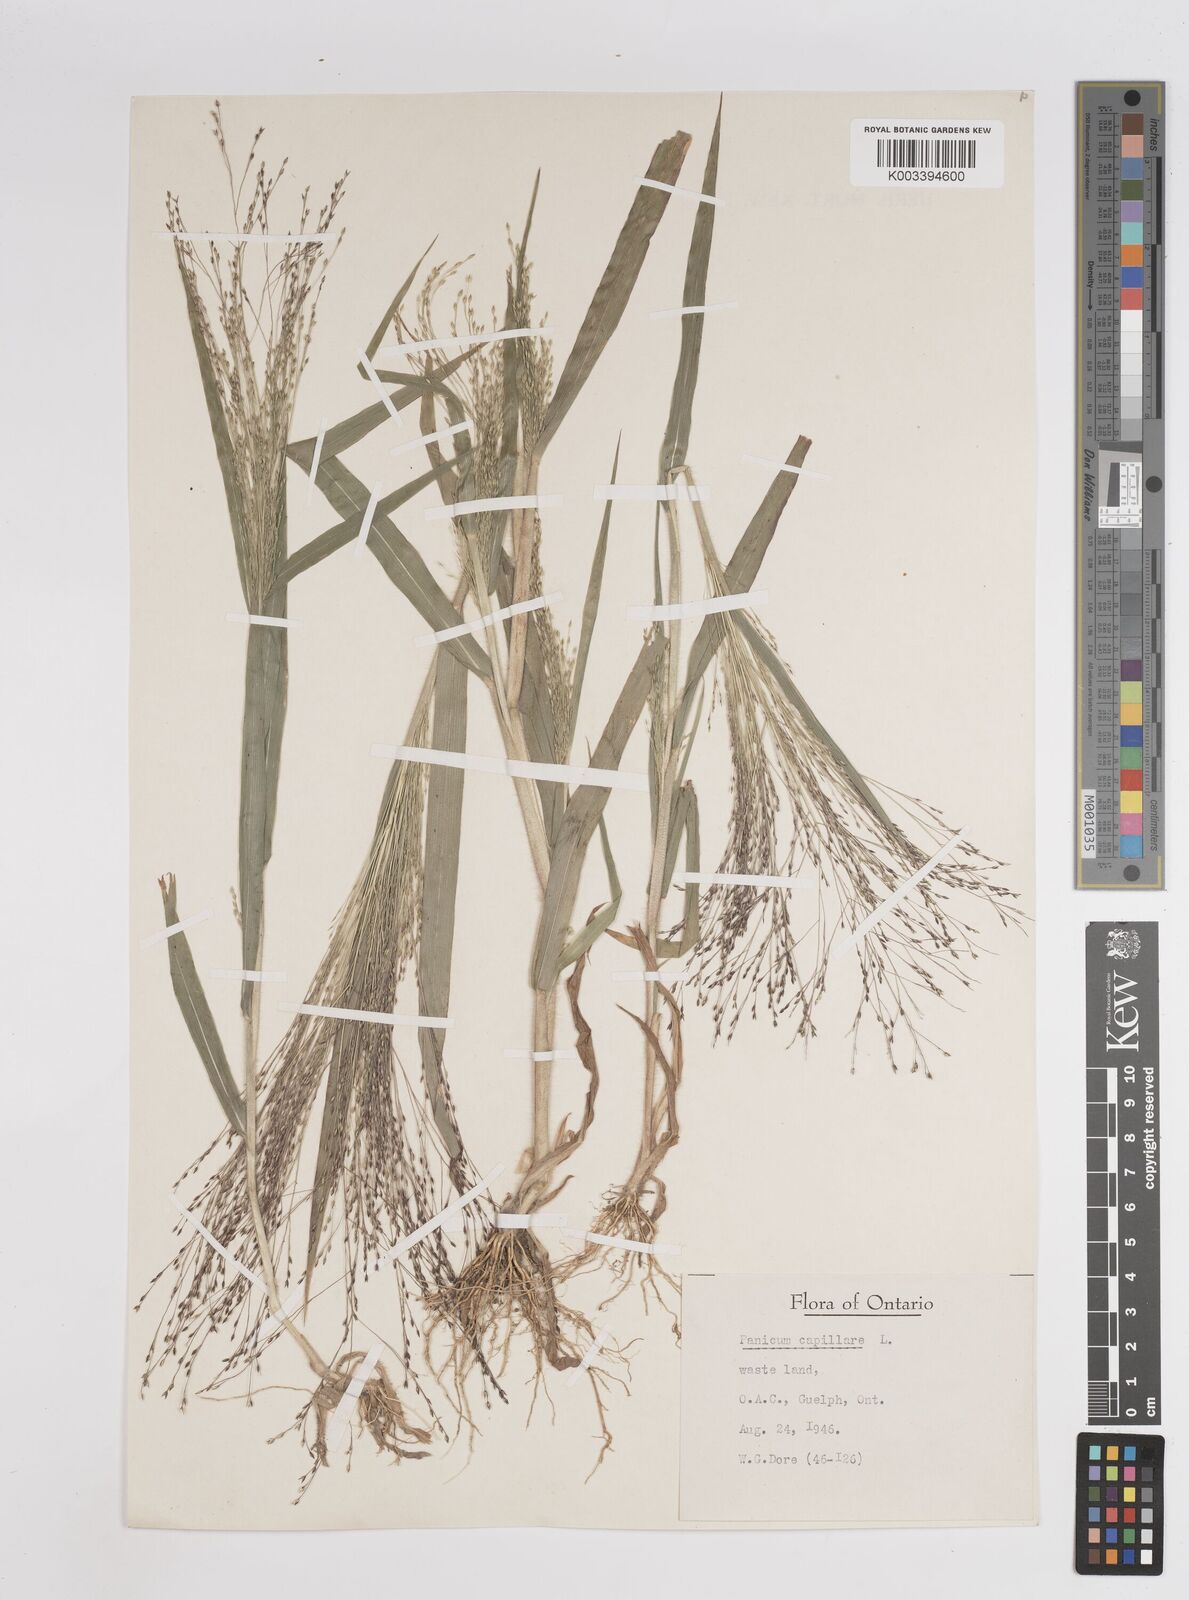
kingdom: Plantae
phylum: Tracheophyta
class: Liliopsida
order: Poales
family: Poaceae
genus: Panicum
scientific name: Panicum capillare
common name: Witch-grass
